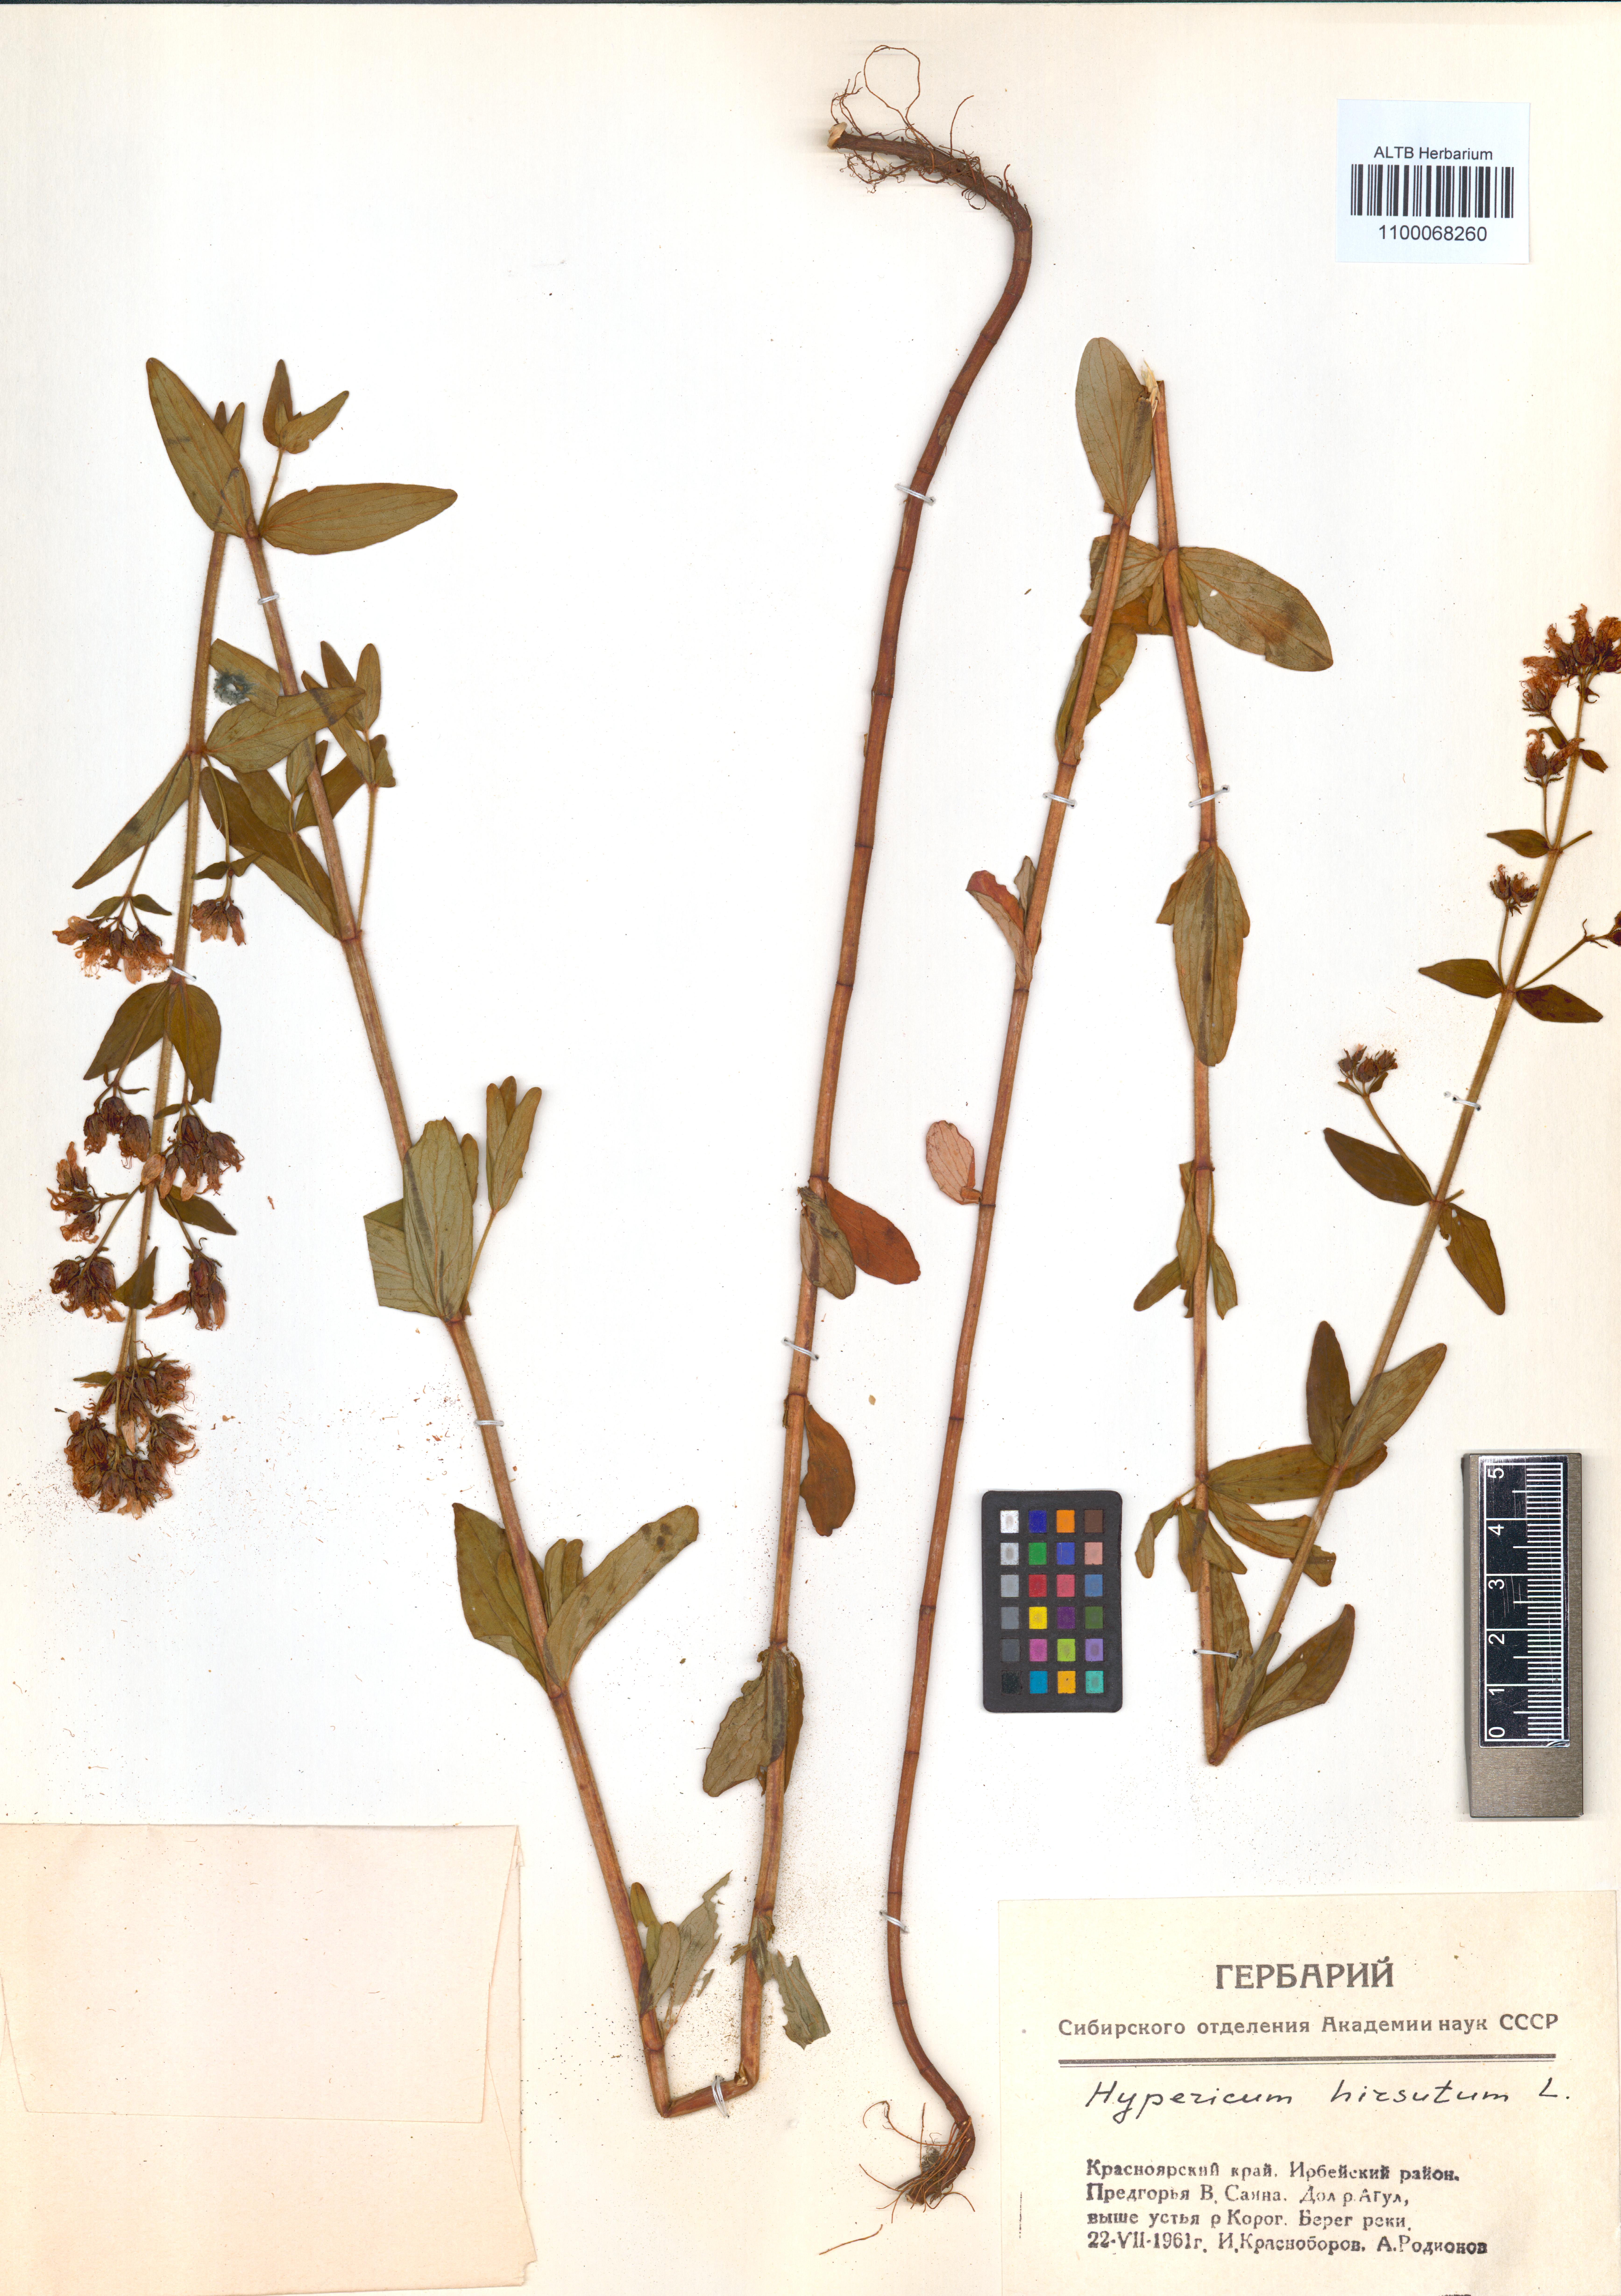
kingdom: Plantae
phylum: Tracheophyta
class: Magnoliopsida
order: Malpighiales
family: Hypericaceae
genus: Hypericum
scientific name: Hypericum hirsutum
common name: Hairy st. john's-wort
